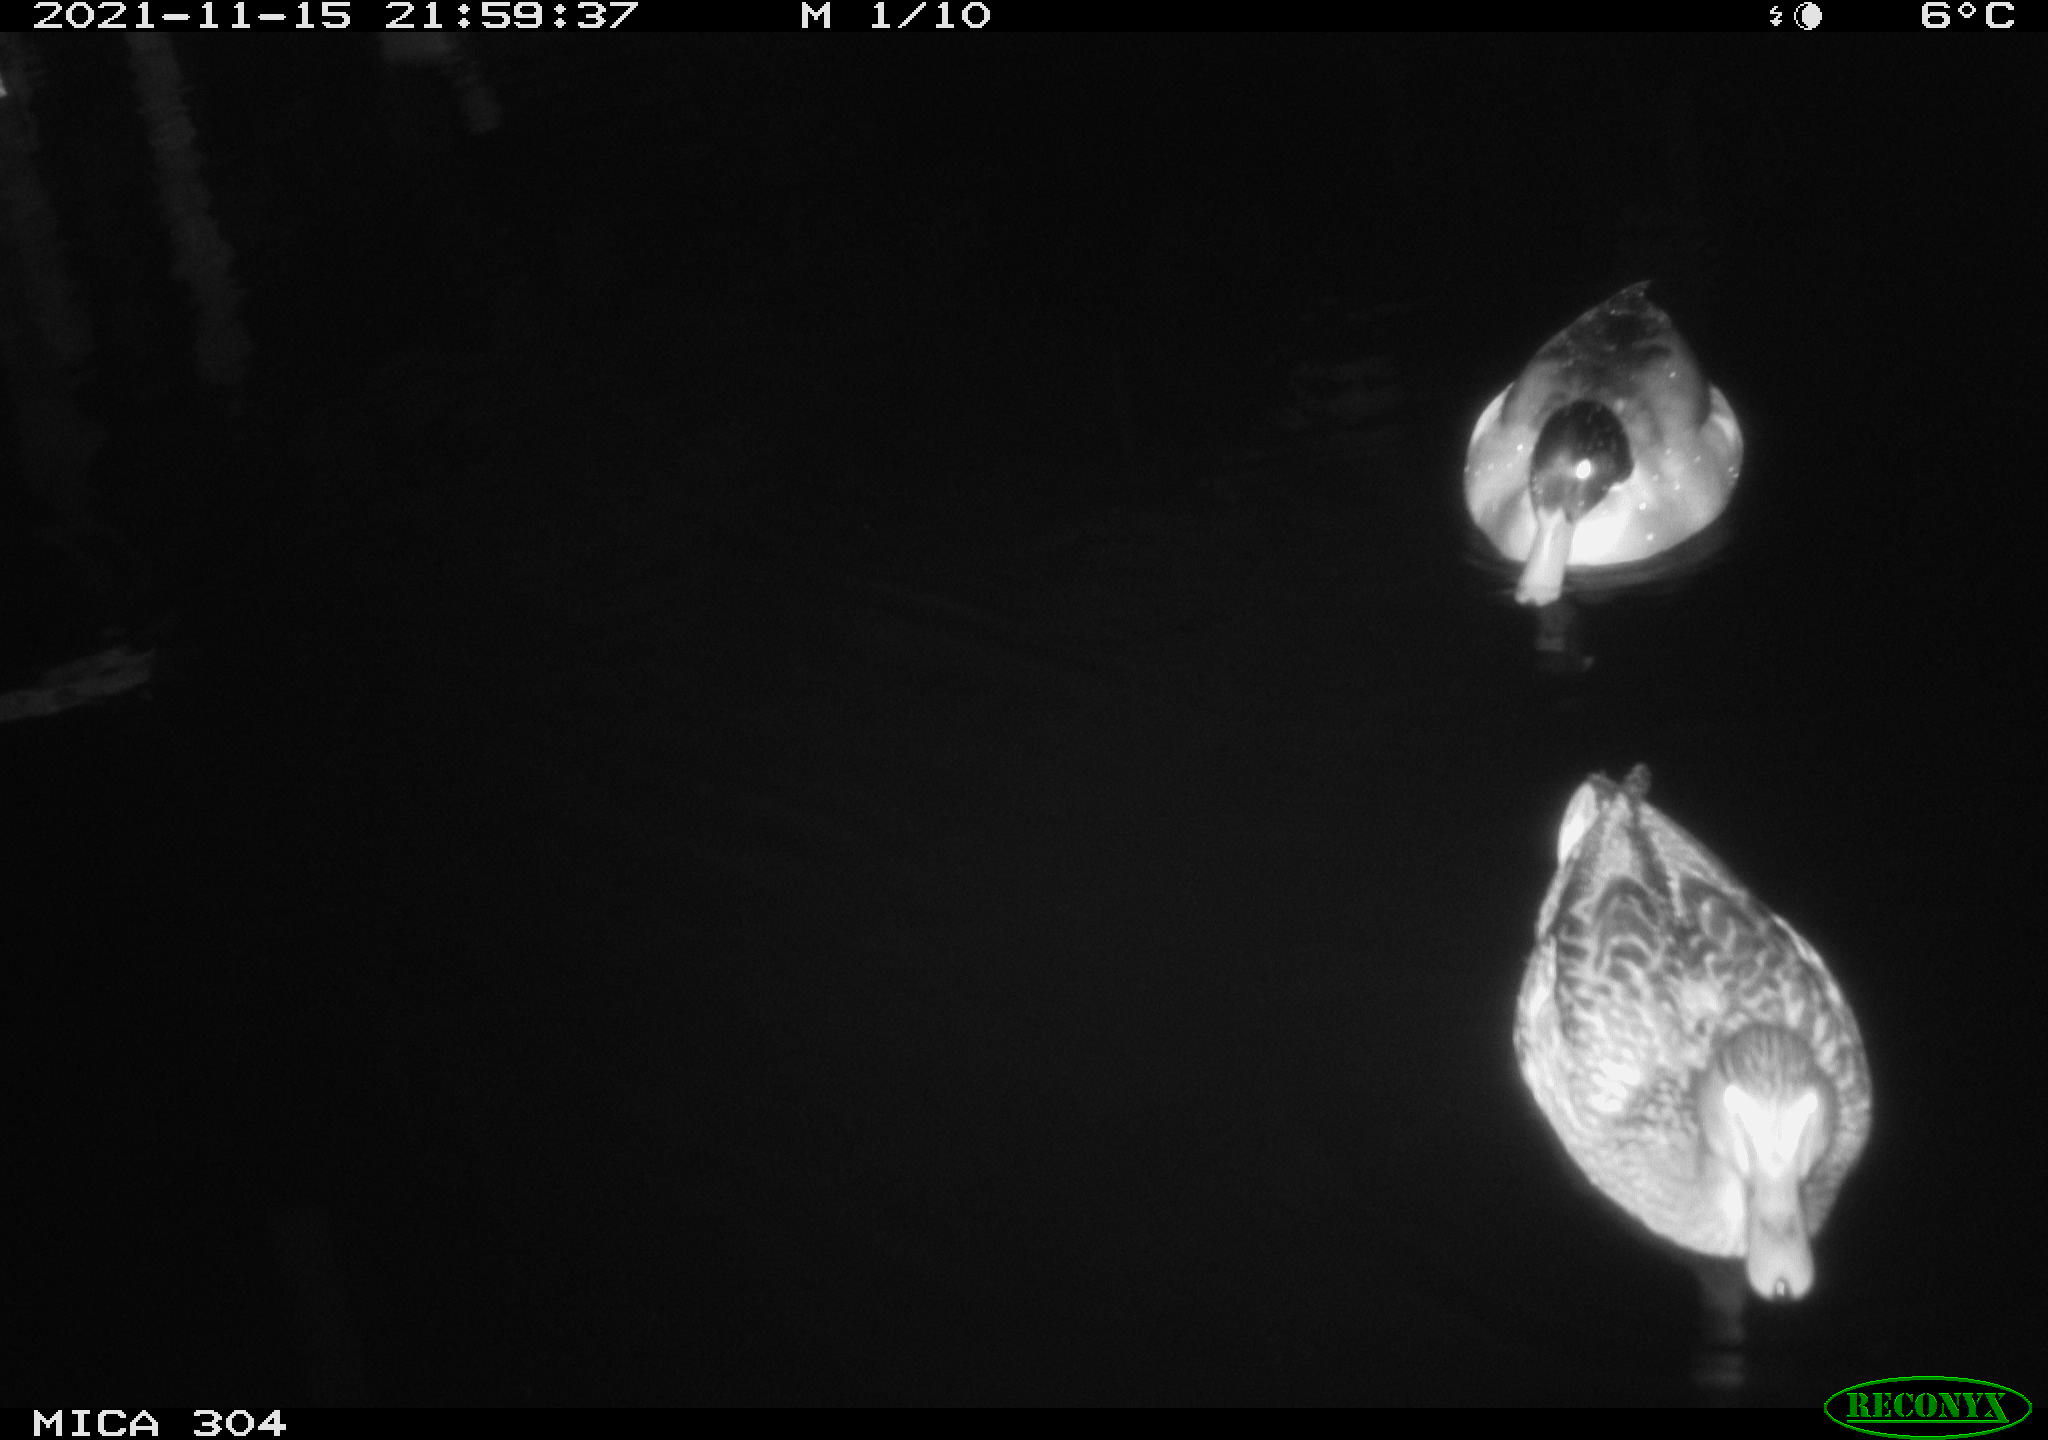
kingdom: Animalia
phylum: Chordata
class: Aves
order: Anseriformes
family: Anatidae
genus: Anas
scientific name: Anas platyrhynchos
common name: Mallard
